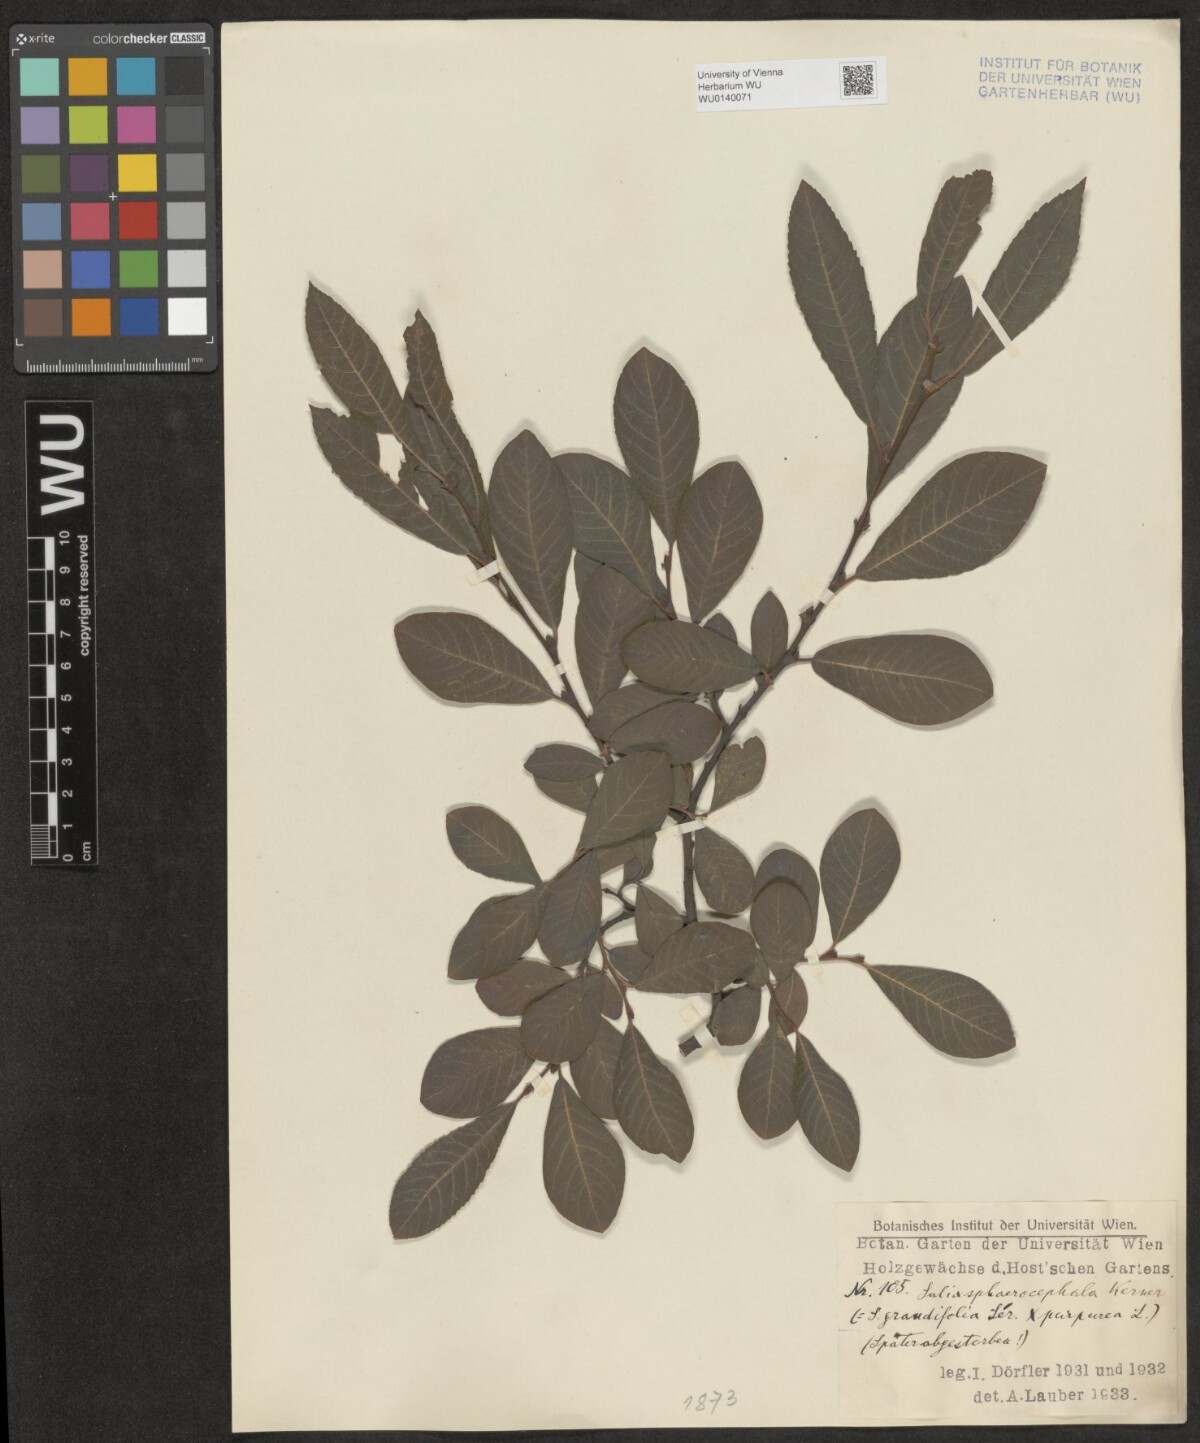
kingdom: Plantae
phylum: Tracheophyta
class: Magnoliopsida
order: Malpighiales
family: Salicaceae
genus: Salix
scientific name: Salix purpurea
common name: Purple willow
